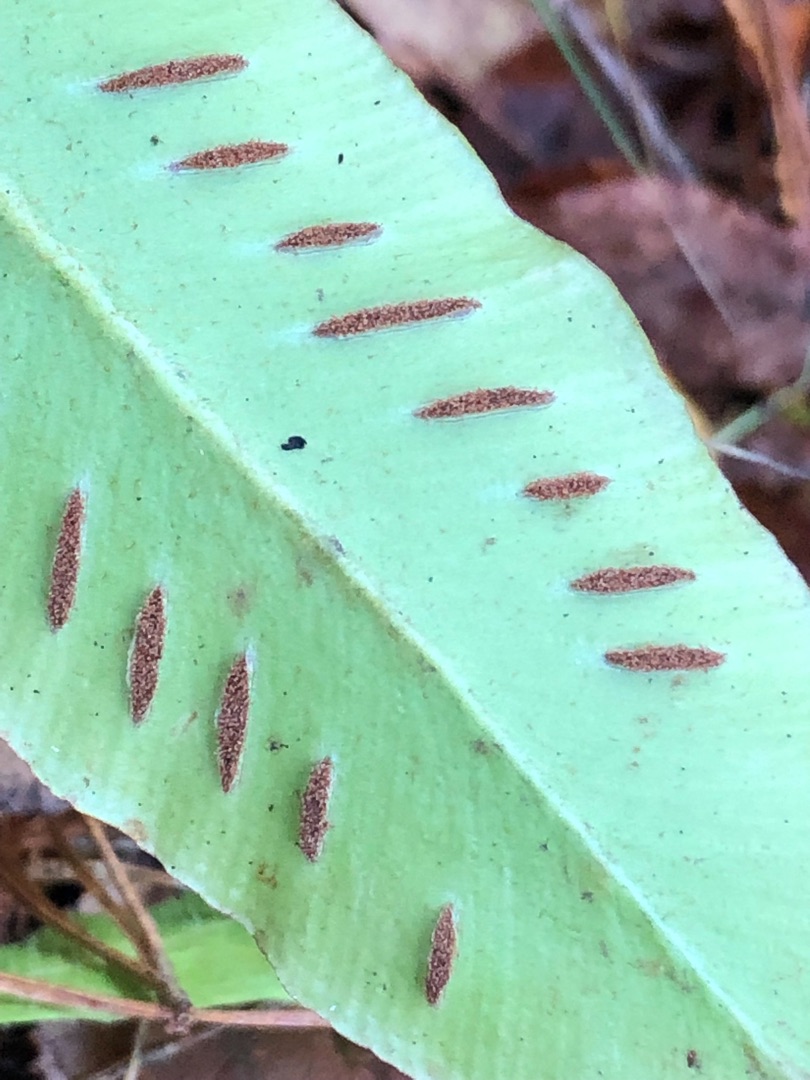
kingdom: Plantae
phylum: Tracheophyta
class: Polypodiopsida
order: Polypodiales
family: Aspleniaceae
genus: Asplenium
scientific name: Asplenium scolopendrium
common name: Hjortetunge
